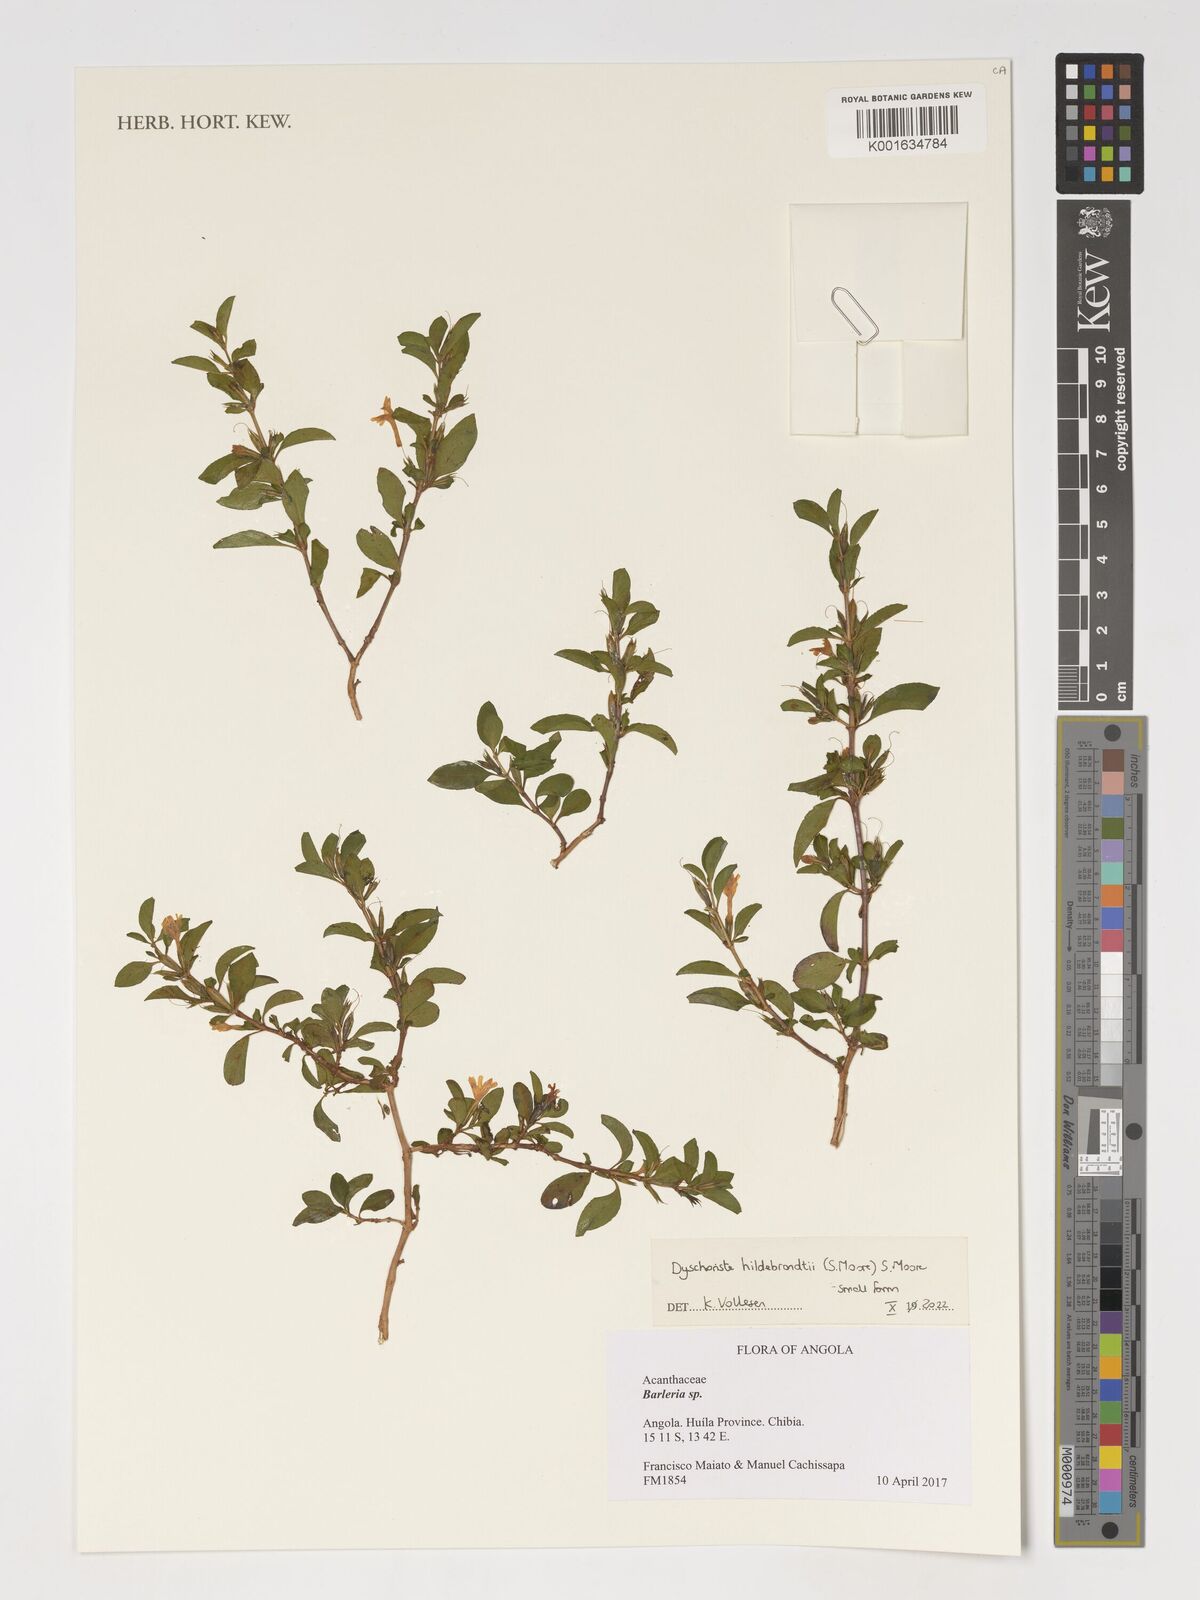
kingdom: Plantae
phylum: Tracheophyta
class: Magnoliopsida
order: Lamiales
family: Acanthaceae
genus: Dyschoriste
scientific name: Dyschoriste hildebrandtii
